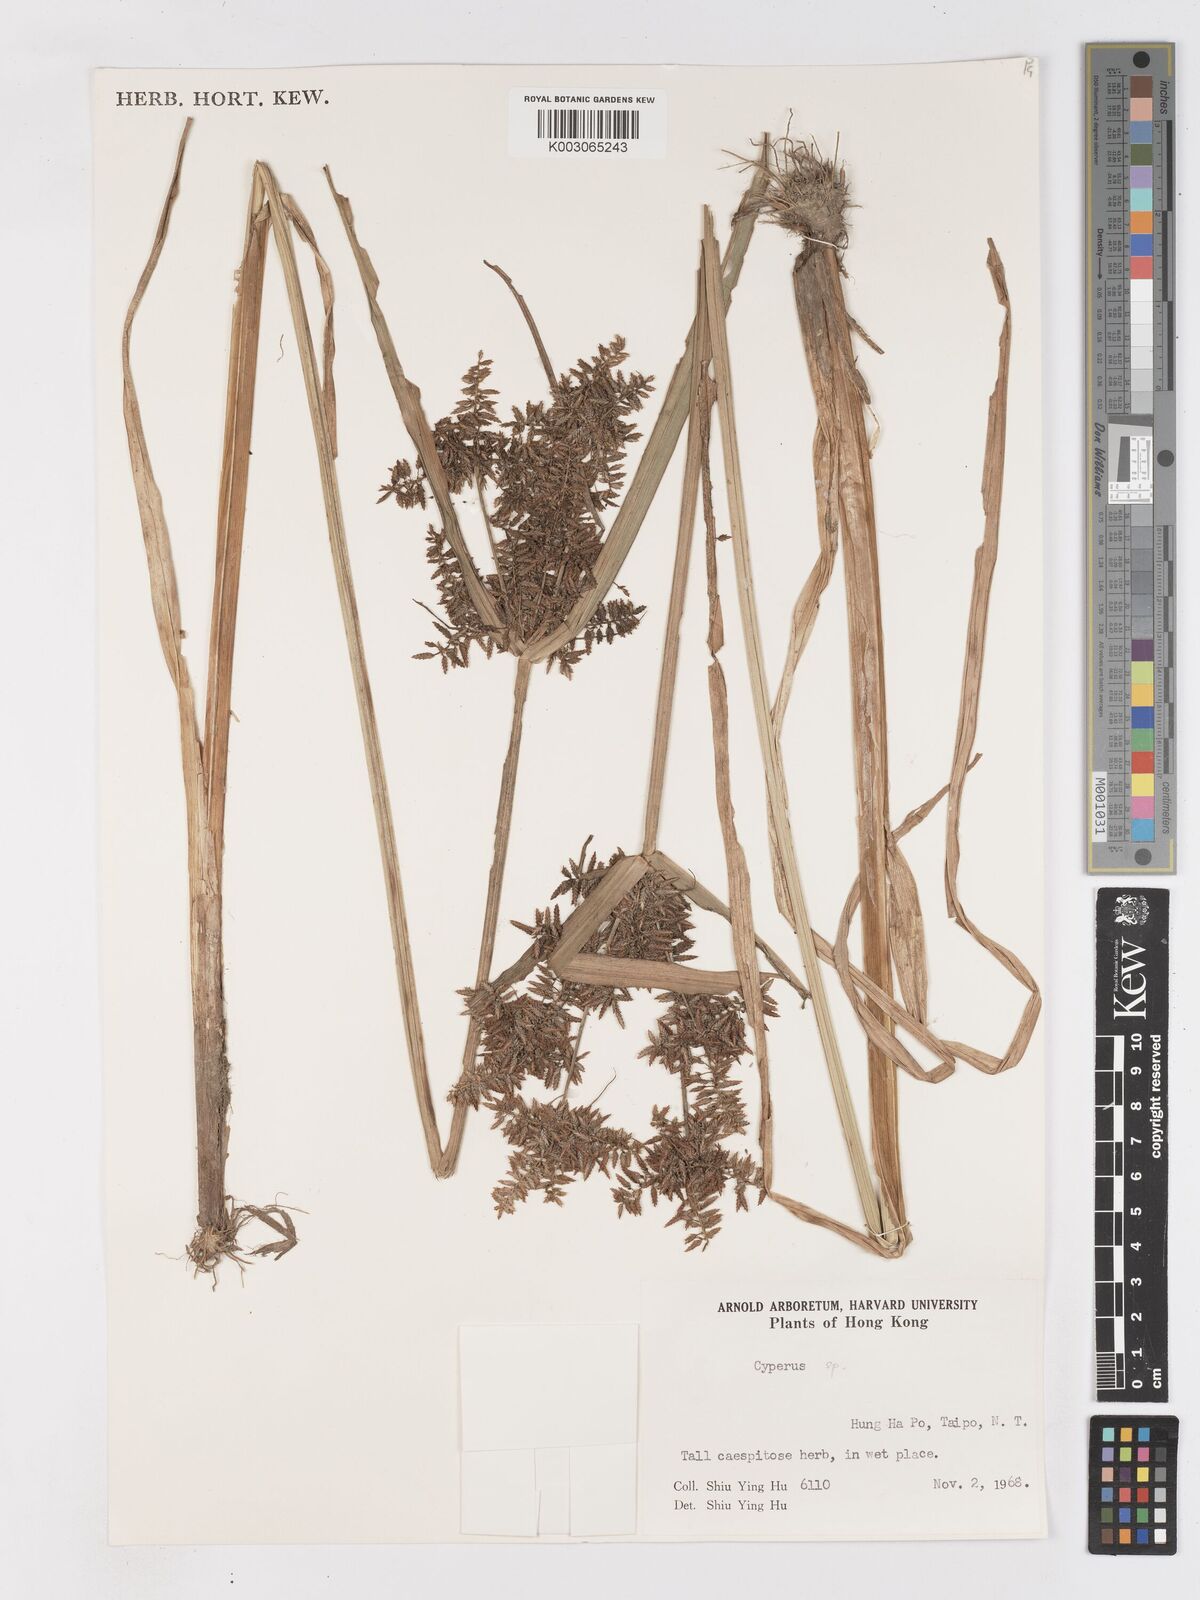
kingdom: Plantae
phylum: Tracheophyta
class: Liliopsida
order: Poales
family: Cyperaceae
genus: Cyperus
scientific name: Cyperus serotinus
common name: Tidalmarsh flatsedge
